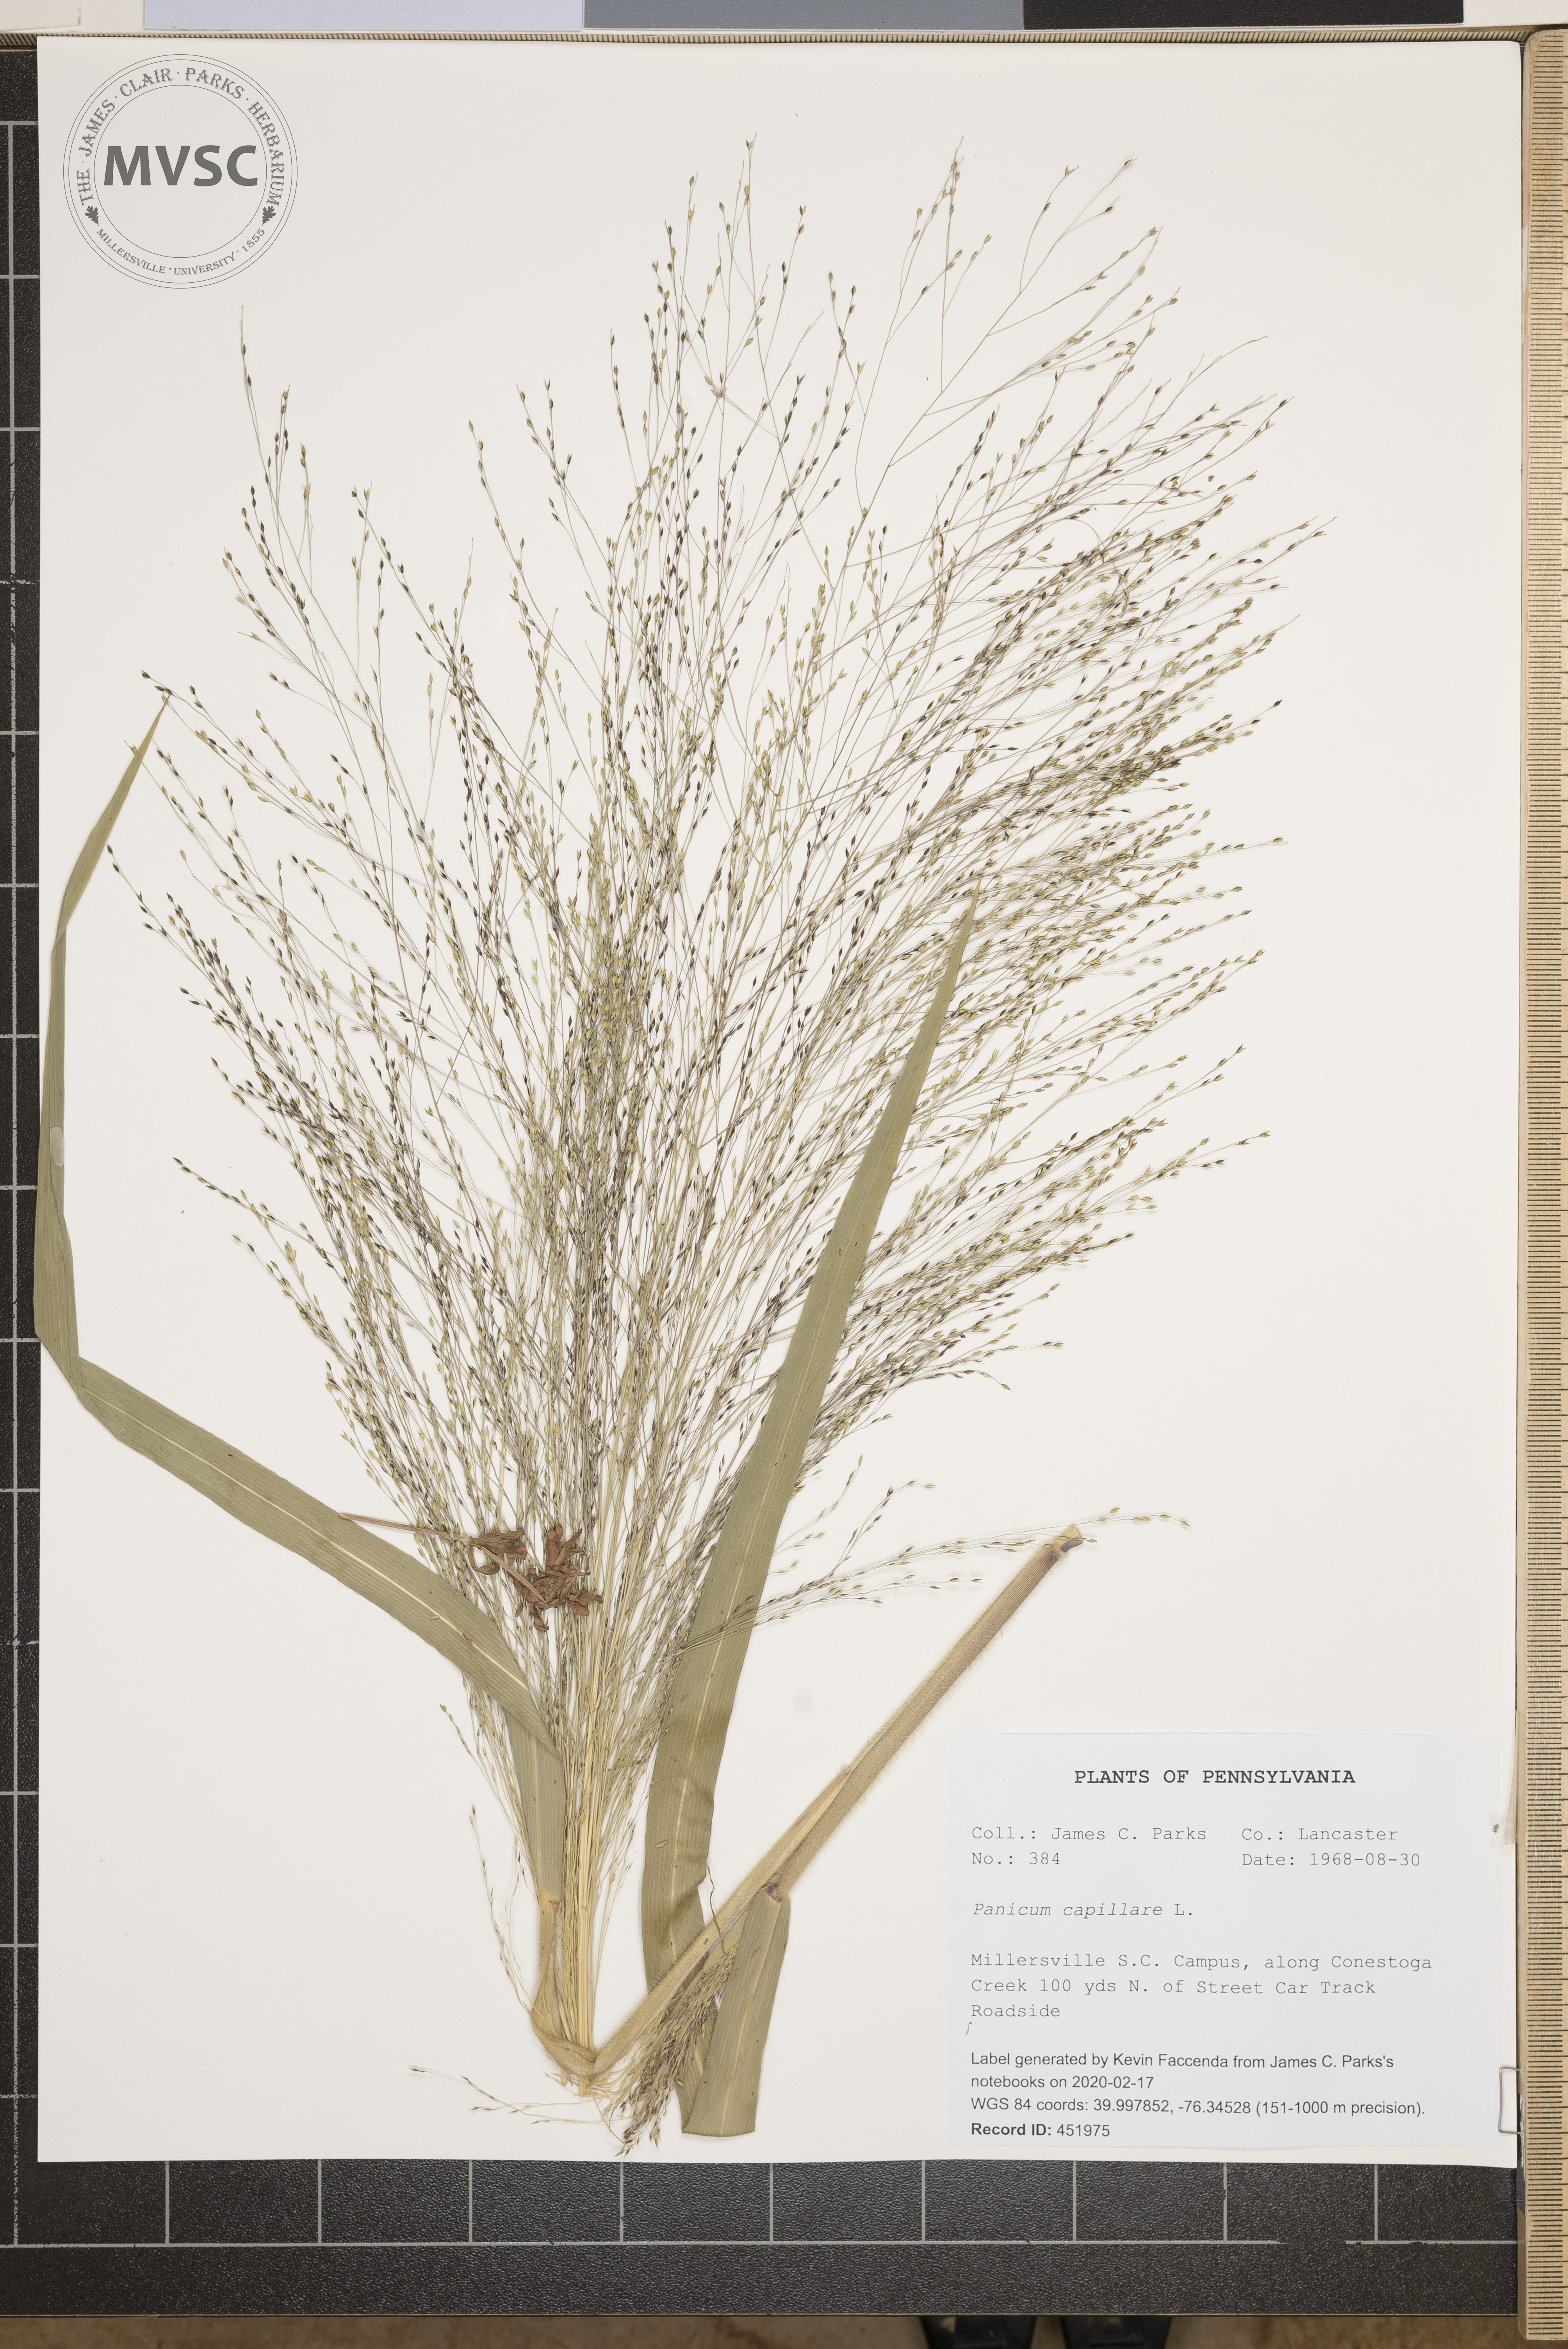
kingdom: Plantae
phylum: Tracheophyta
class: Liliopsida
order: Poales
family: Poaceae
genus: Panicum
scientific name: Panicum capillare
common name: Witch-grass
